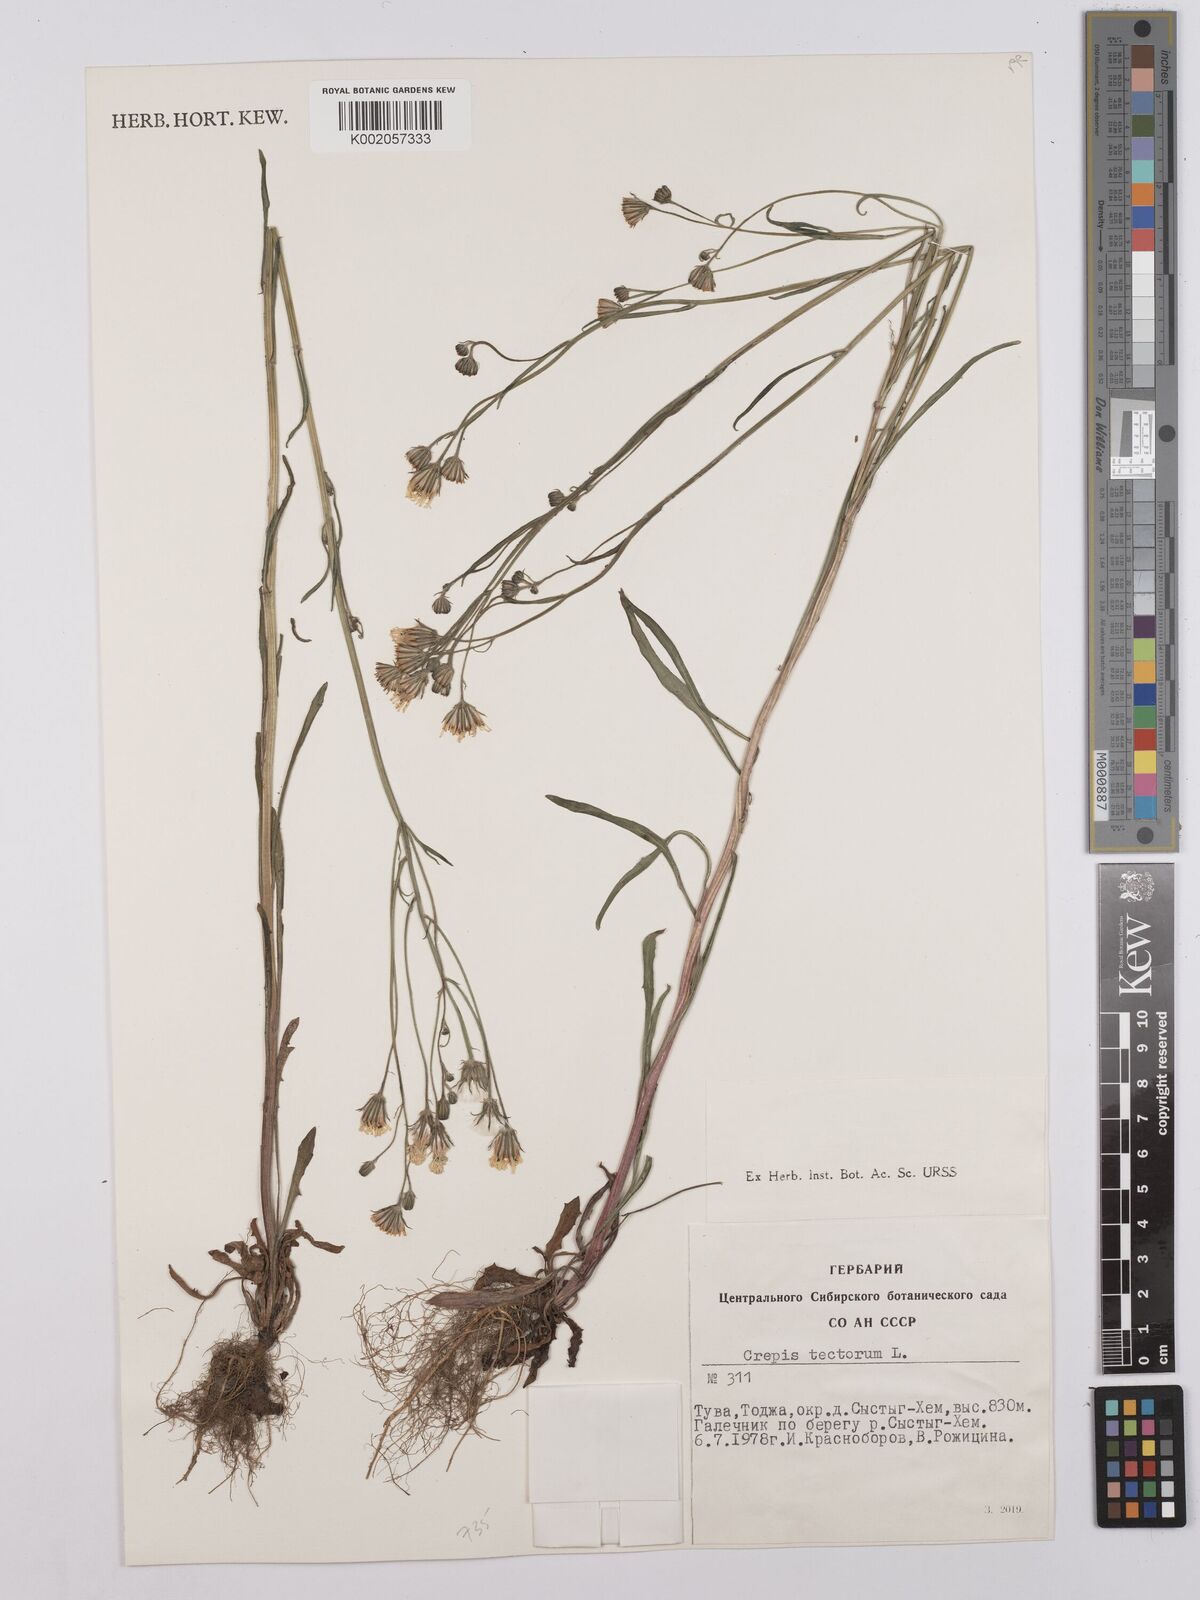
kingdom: Plantae
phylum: Tracheophyta
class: Magnoliopsida
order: Asterales
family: Asteraceae
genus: Crepis
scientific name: Crepis tectorum
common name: Narrow-leaved hawk's-beard
